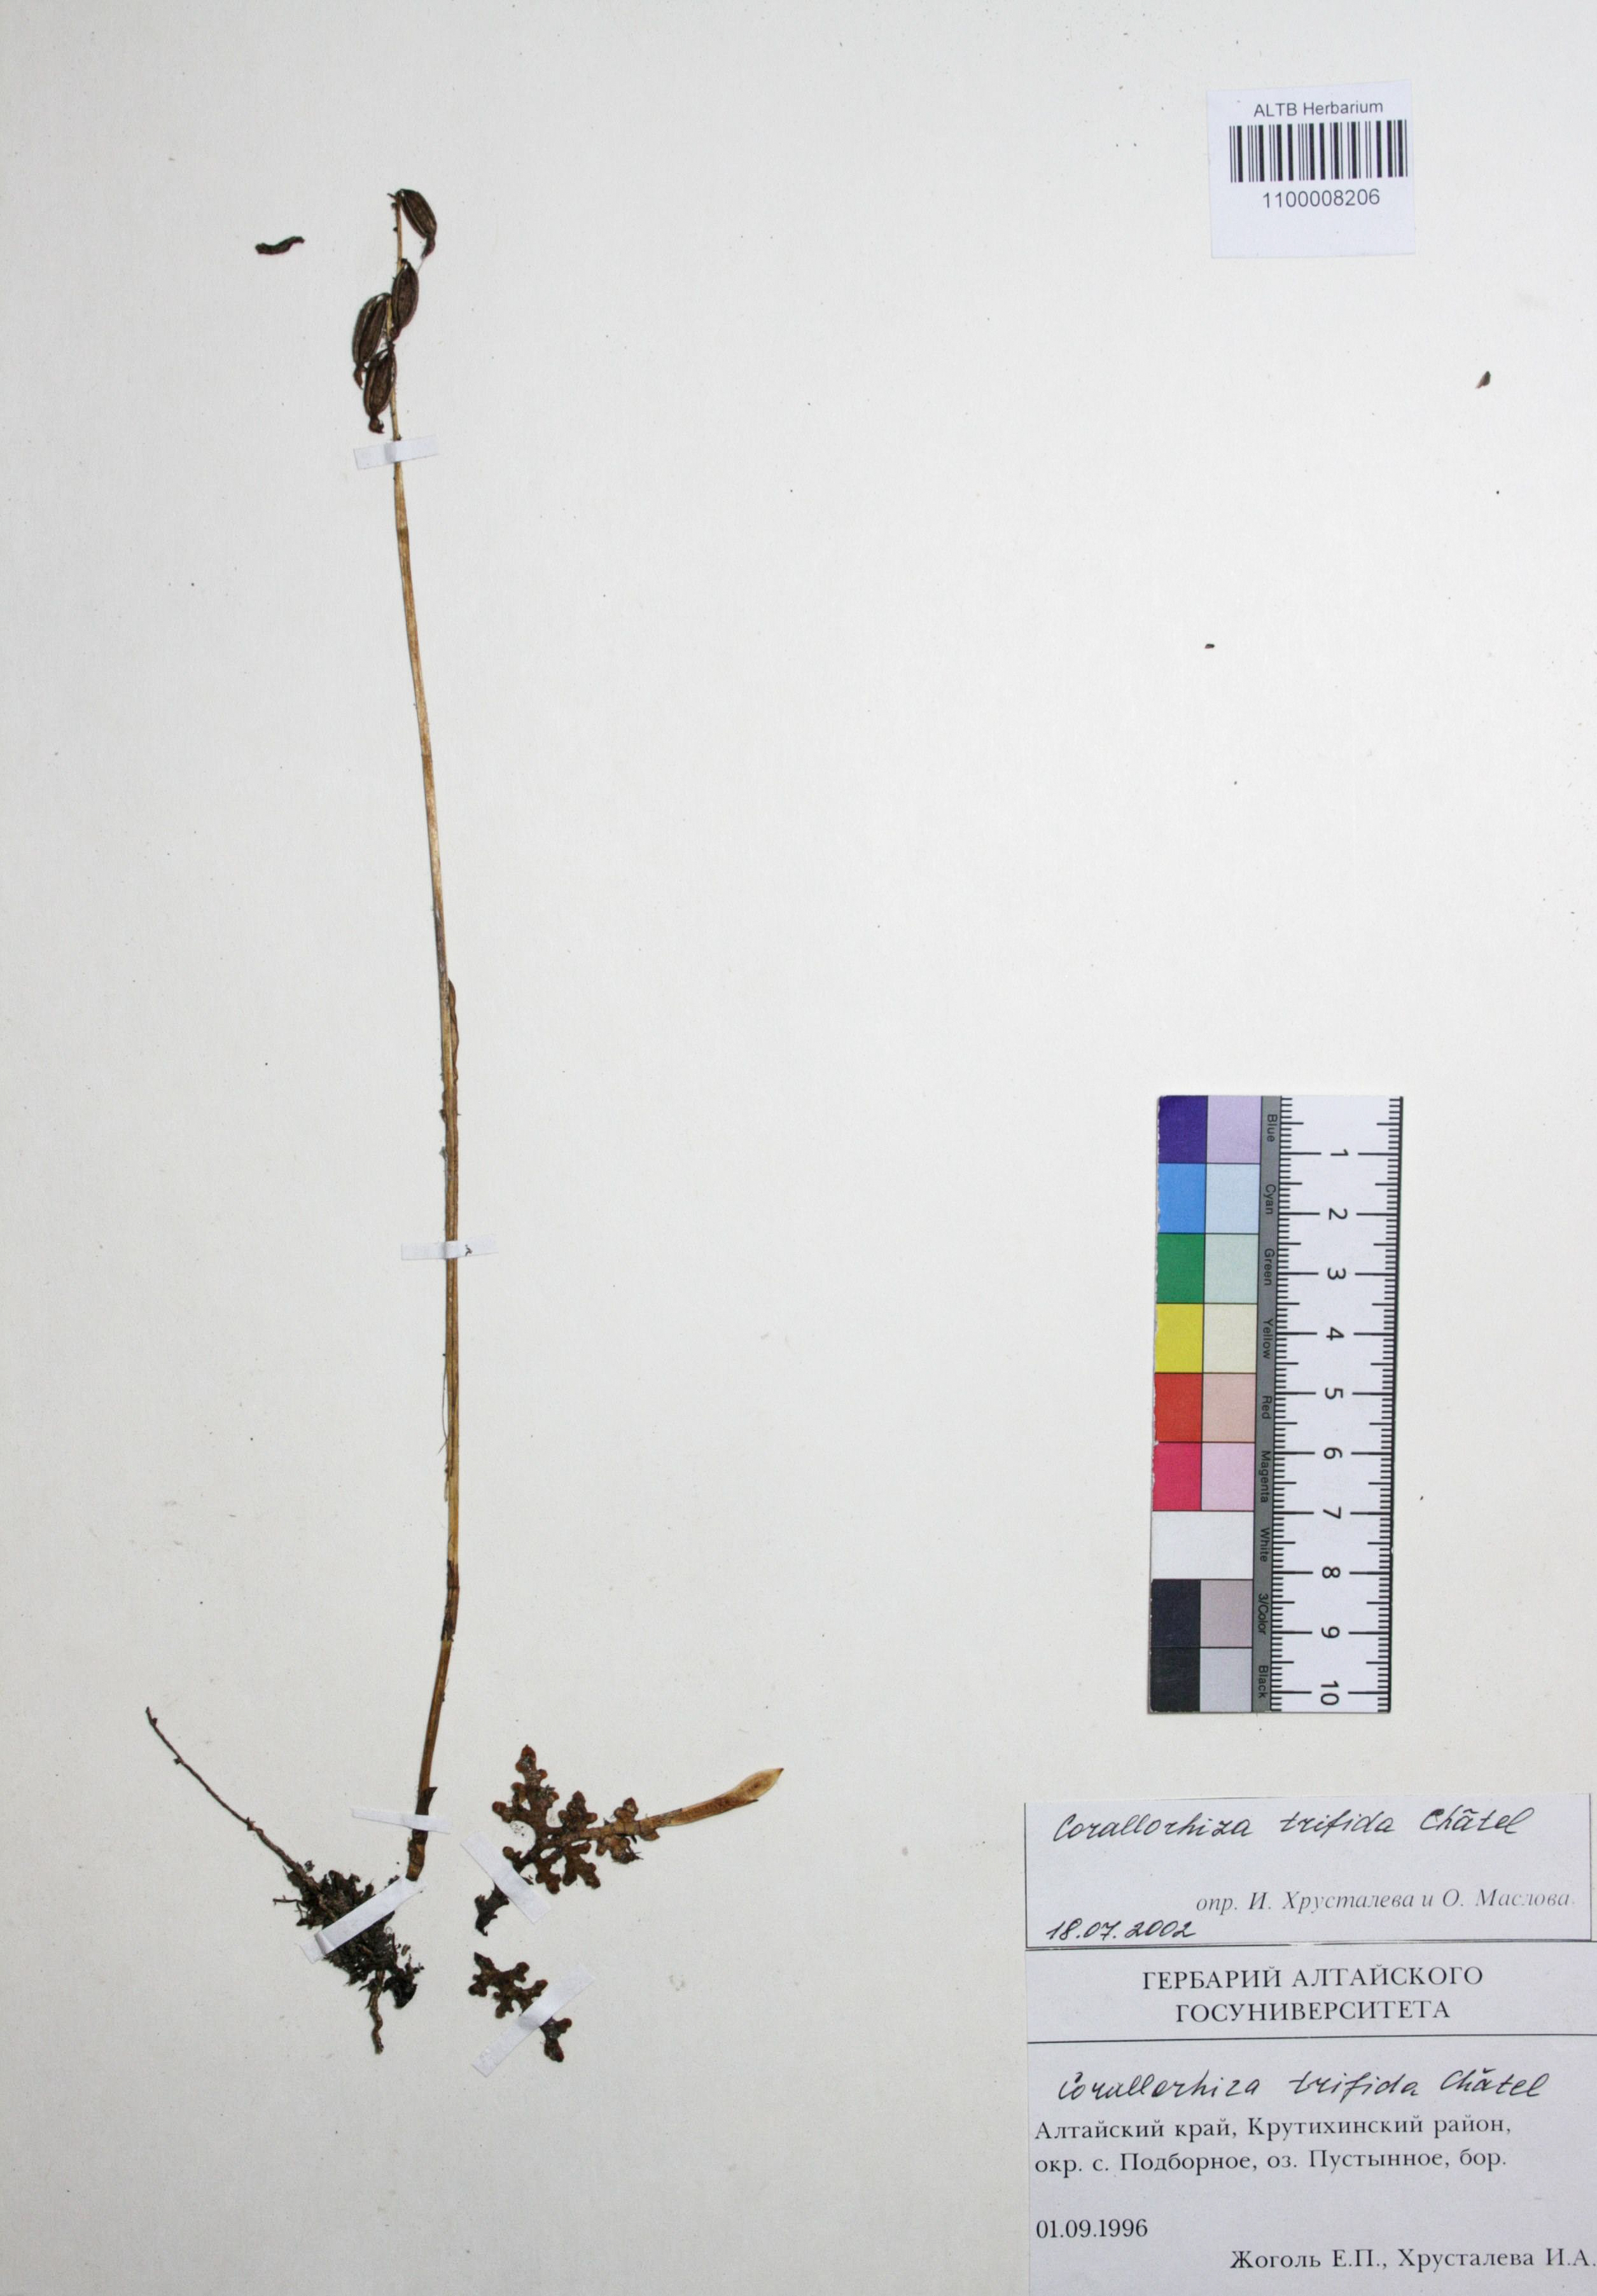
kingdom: Plantae
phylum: Tracheophyta
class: Liliopsida
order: Asparagales
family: Orchidaceae
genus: Corallorhiza
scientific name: Corallorhiza trifida
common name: Yellow coralroot
